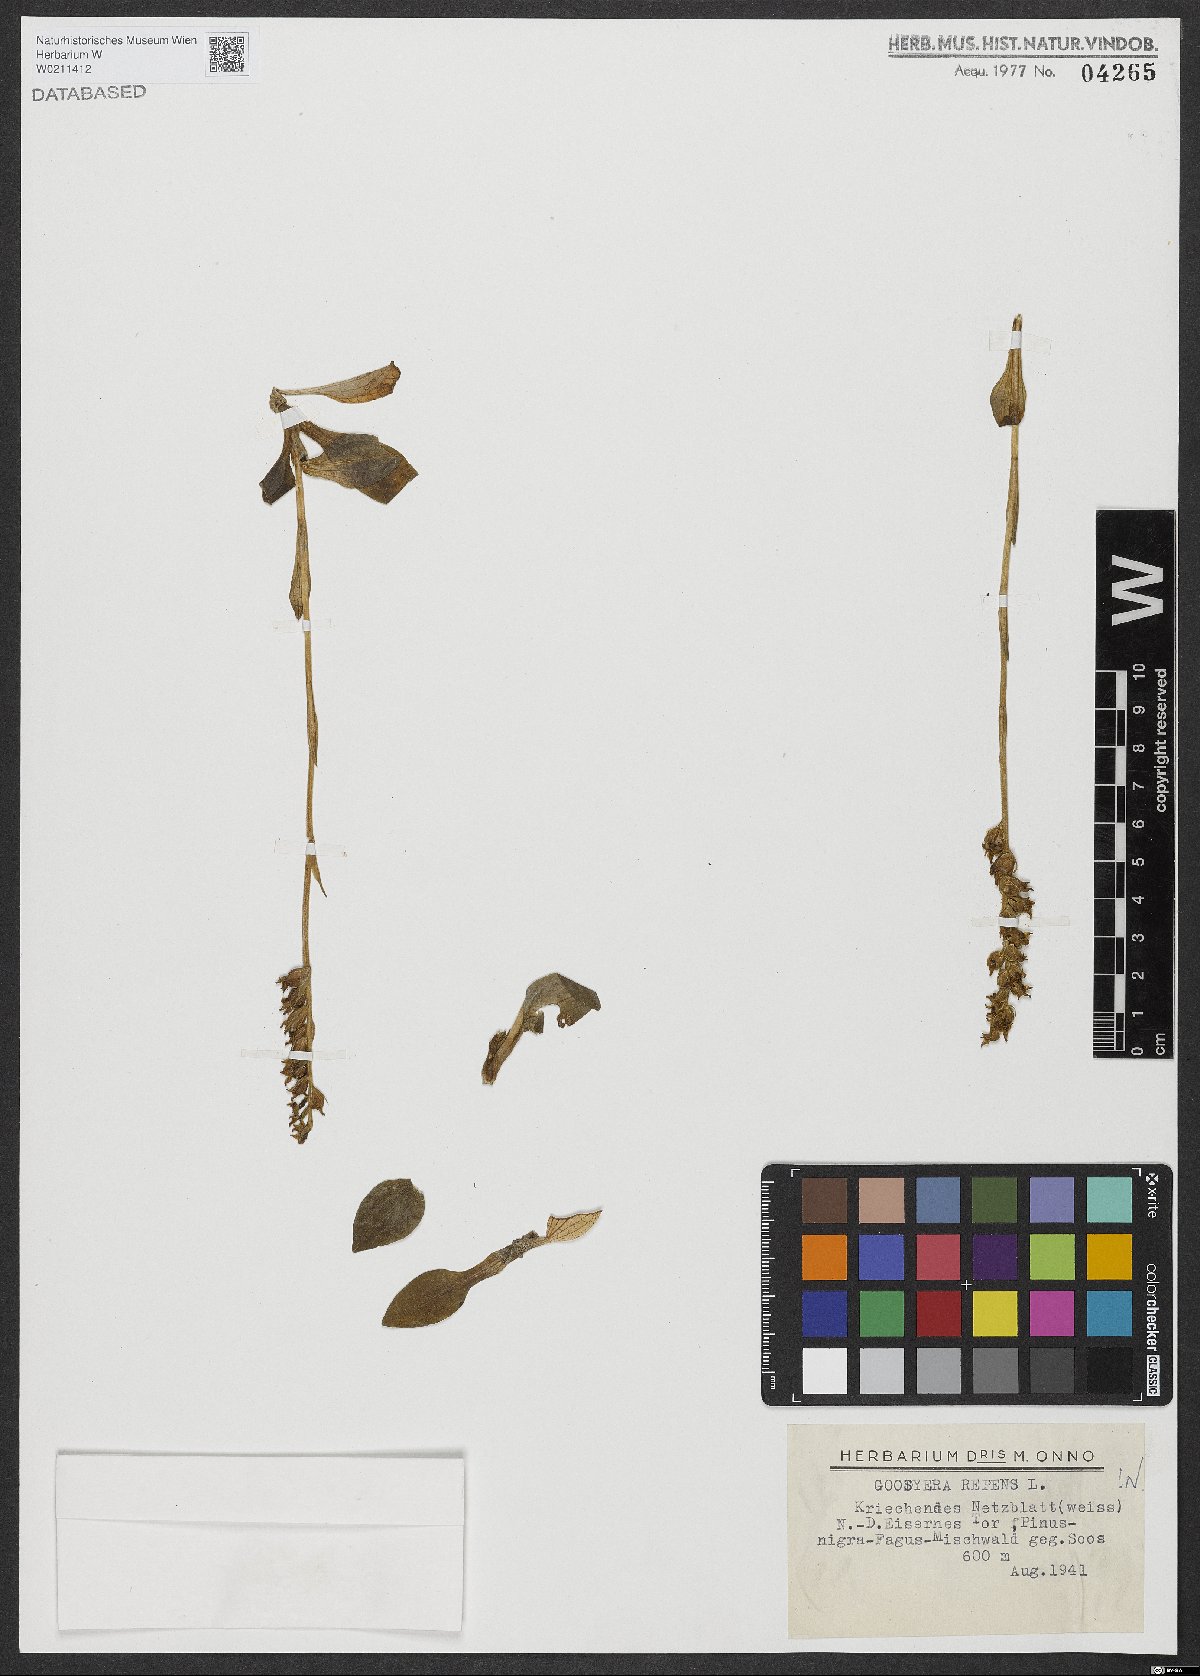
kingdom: Plantae
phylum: Tracheophyta
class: Liliopsida
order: Asparagales
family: Orchidaceae
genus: Goodyera
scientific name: Goodyera repens
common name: Creeping lady's-tresses
